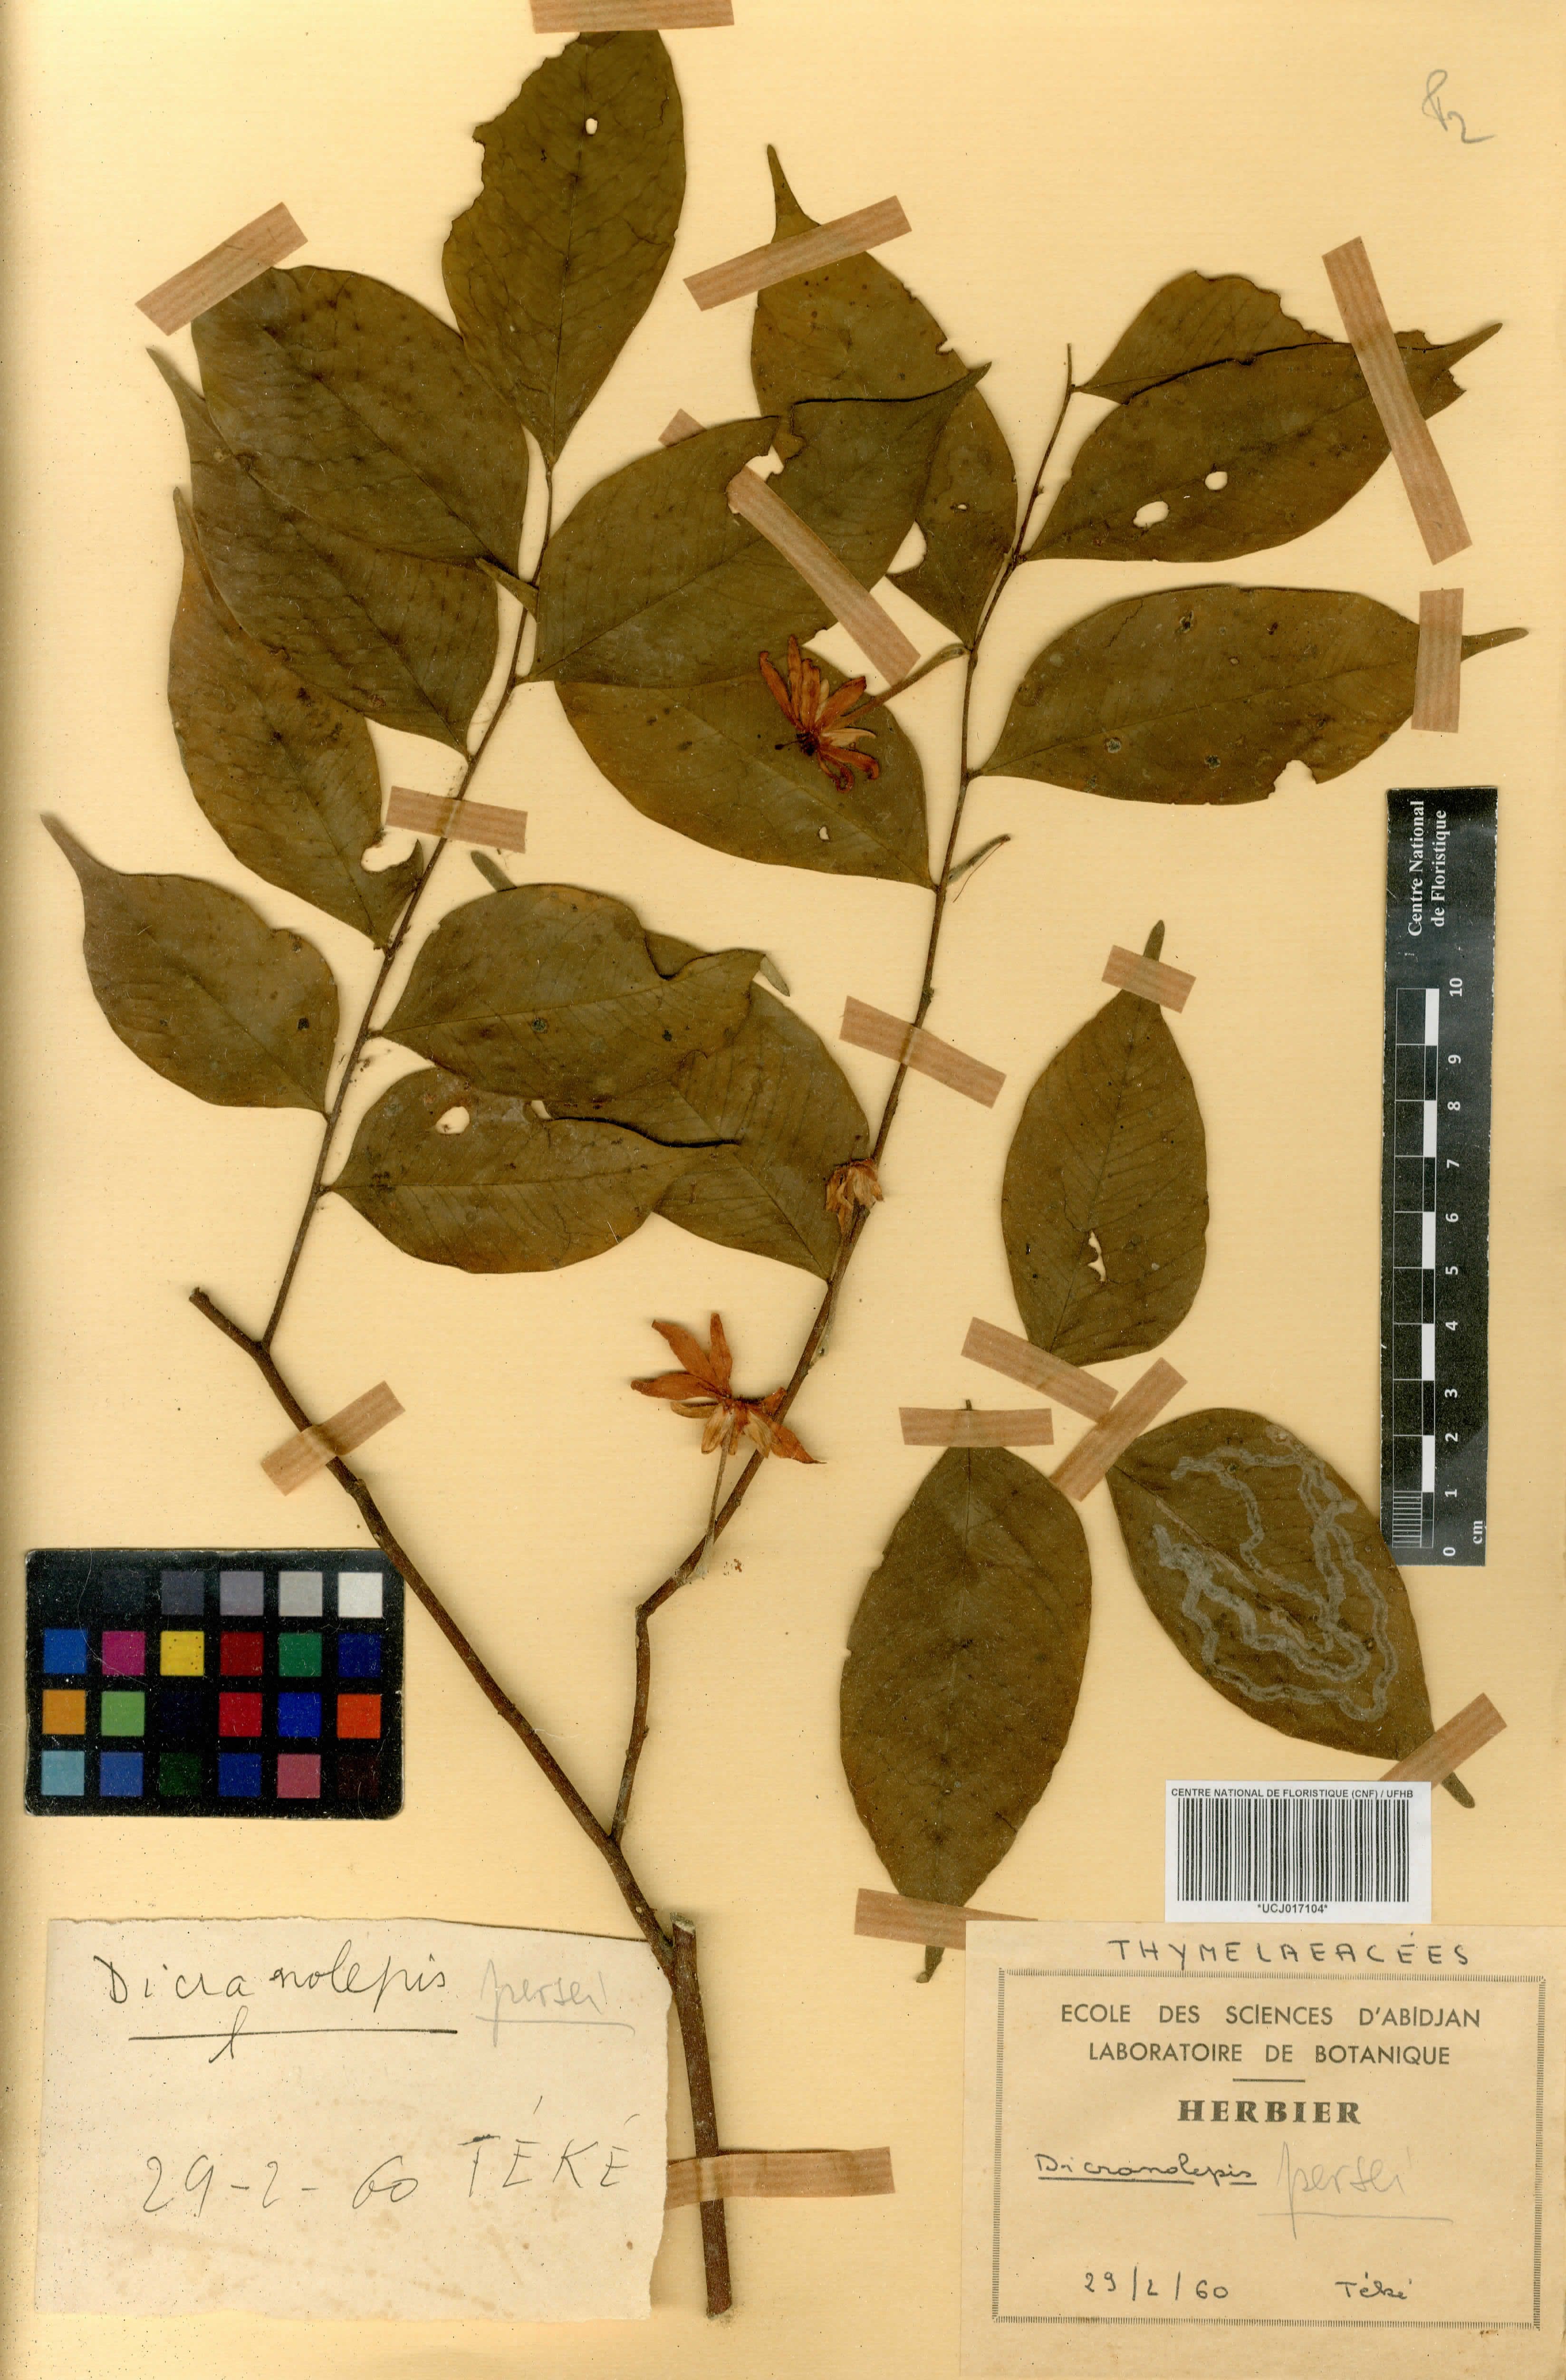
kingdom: Plantae
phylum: Tracheophyta
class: Magnoliopsida
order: Malvales
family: Thymelaeaceae
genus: Dicranolepis
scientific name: Dicranolepis persei
